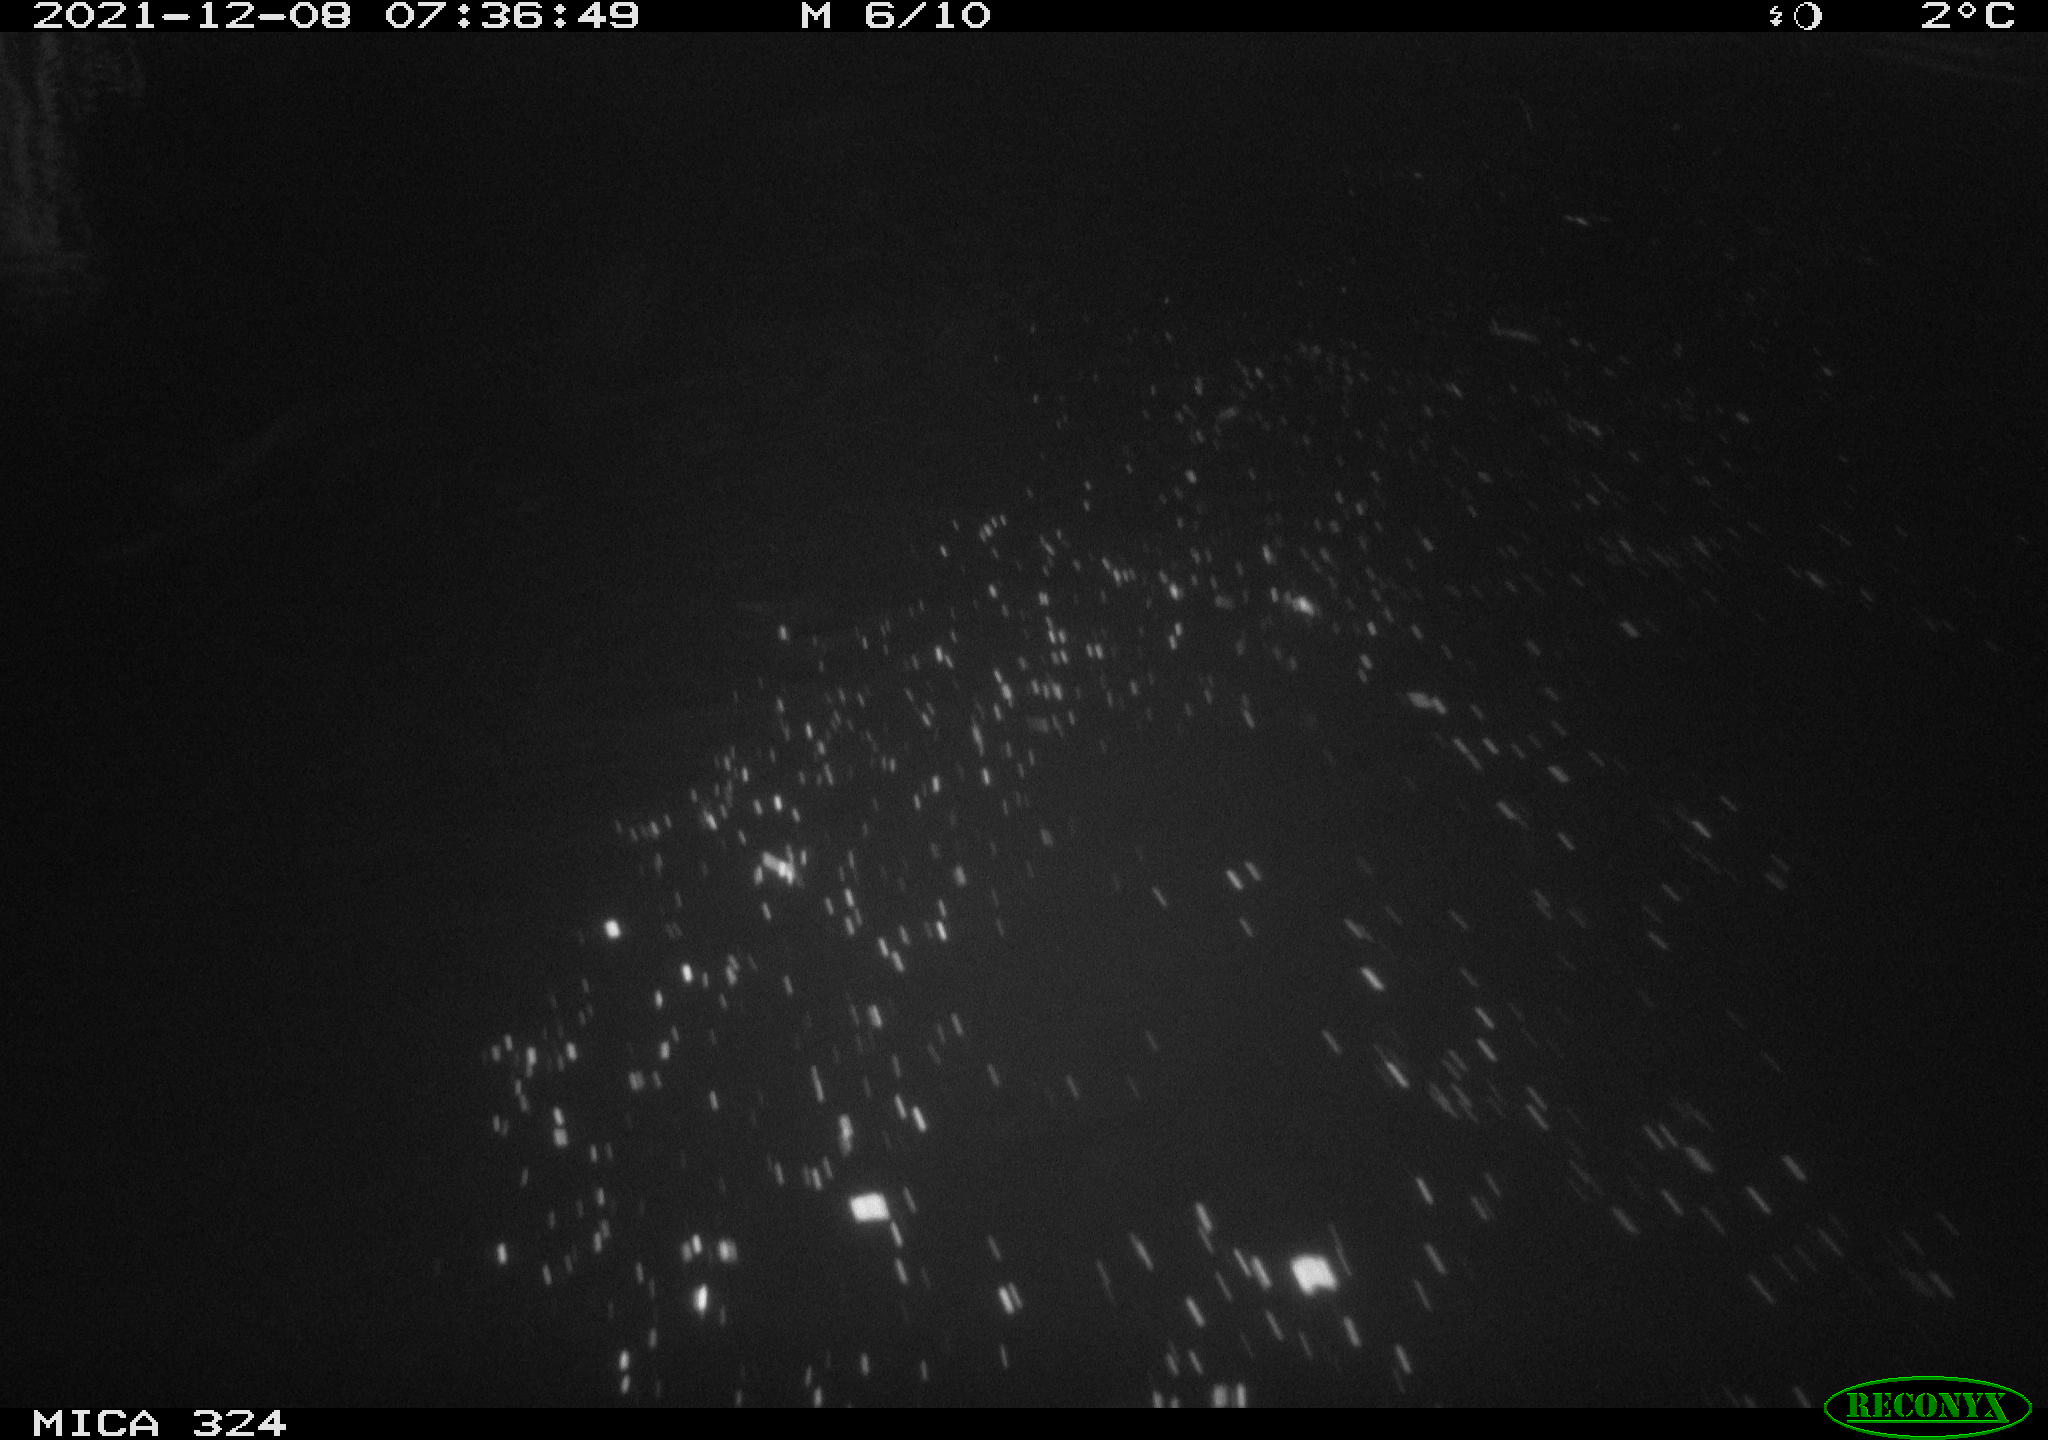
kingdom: Animalia
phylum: Chordata
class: Mammalia
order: Rodentia
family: Cricetidae
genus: Ondatra
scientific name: Ondatra zibethicus
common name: Muskrat
